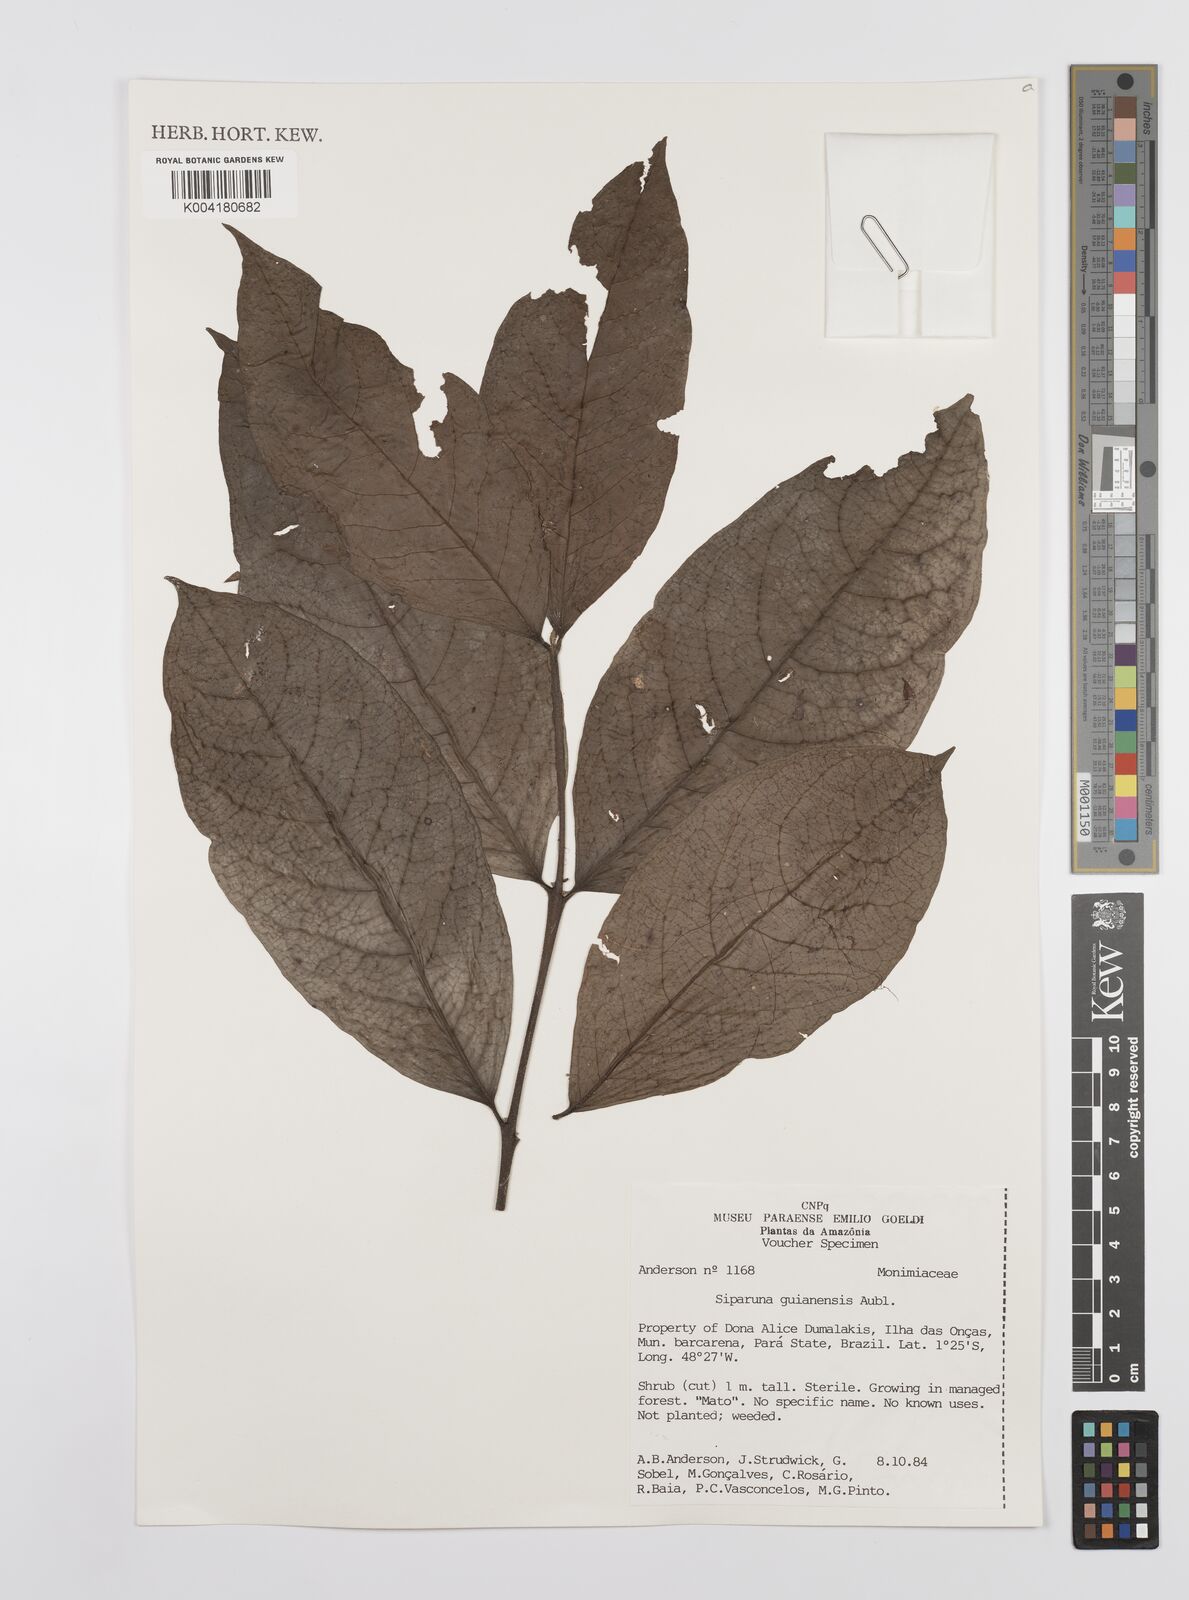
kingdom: Plantae
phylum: Tracheophyta
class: Magnoliopsida
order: Laurales
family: Siparunaceae
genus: Siparuna
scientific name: Siparuna guianensis
